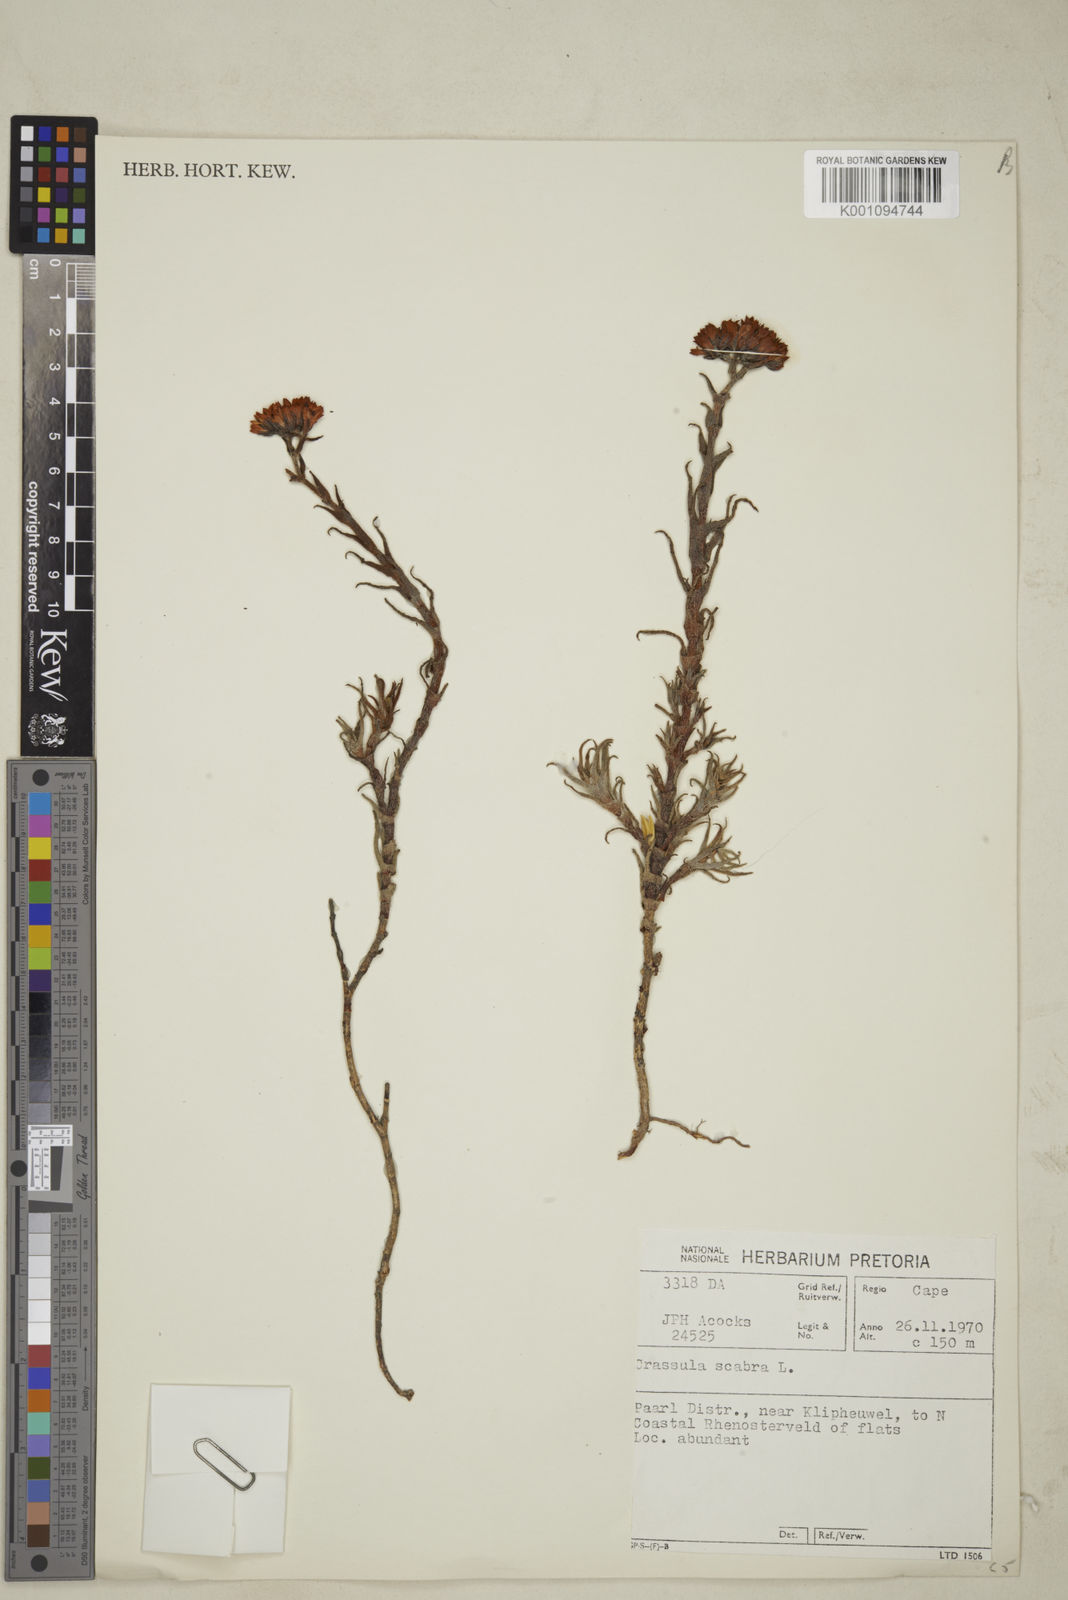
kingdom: Plantae
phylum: Tracheophyta
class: Magnoliopsida
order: Saxifragales
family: Crassulaceae
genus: Crassula
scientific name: Crassula scabra
